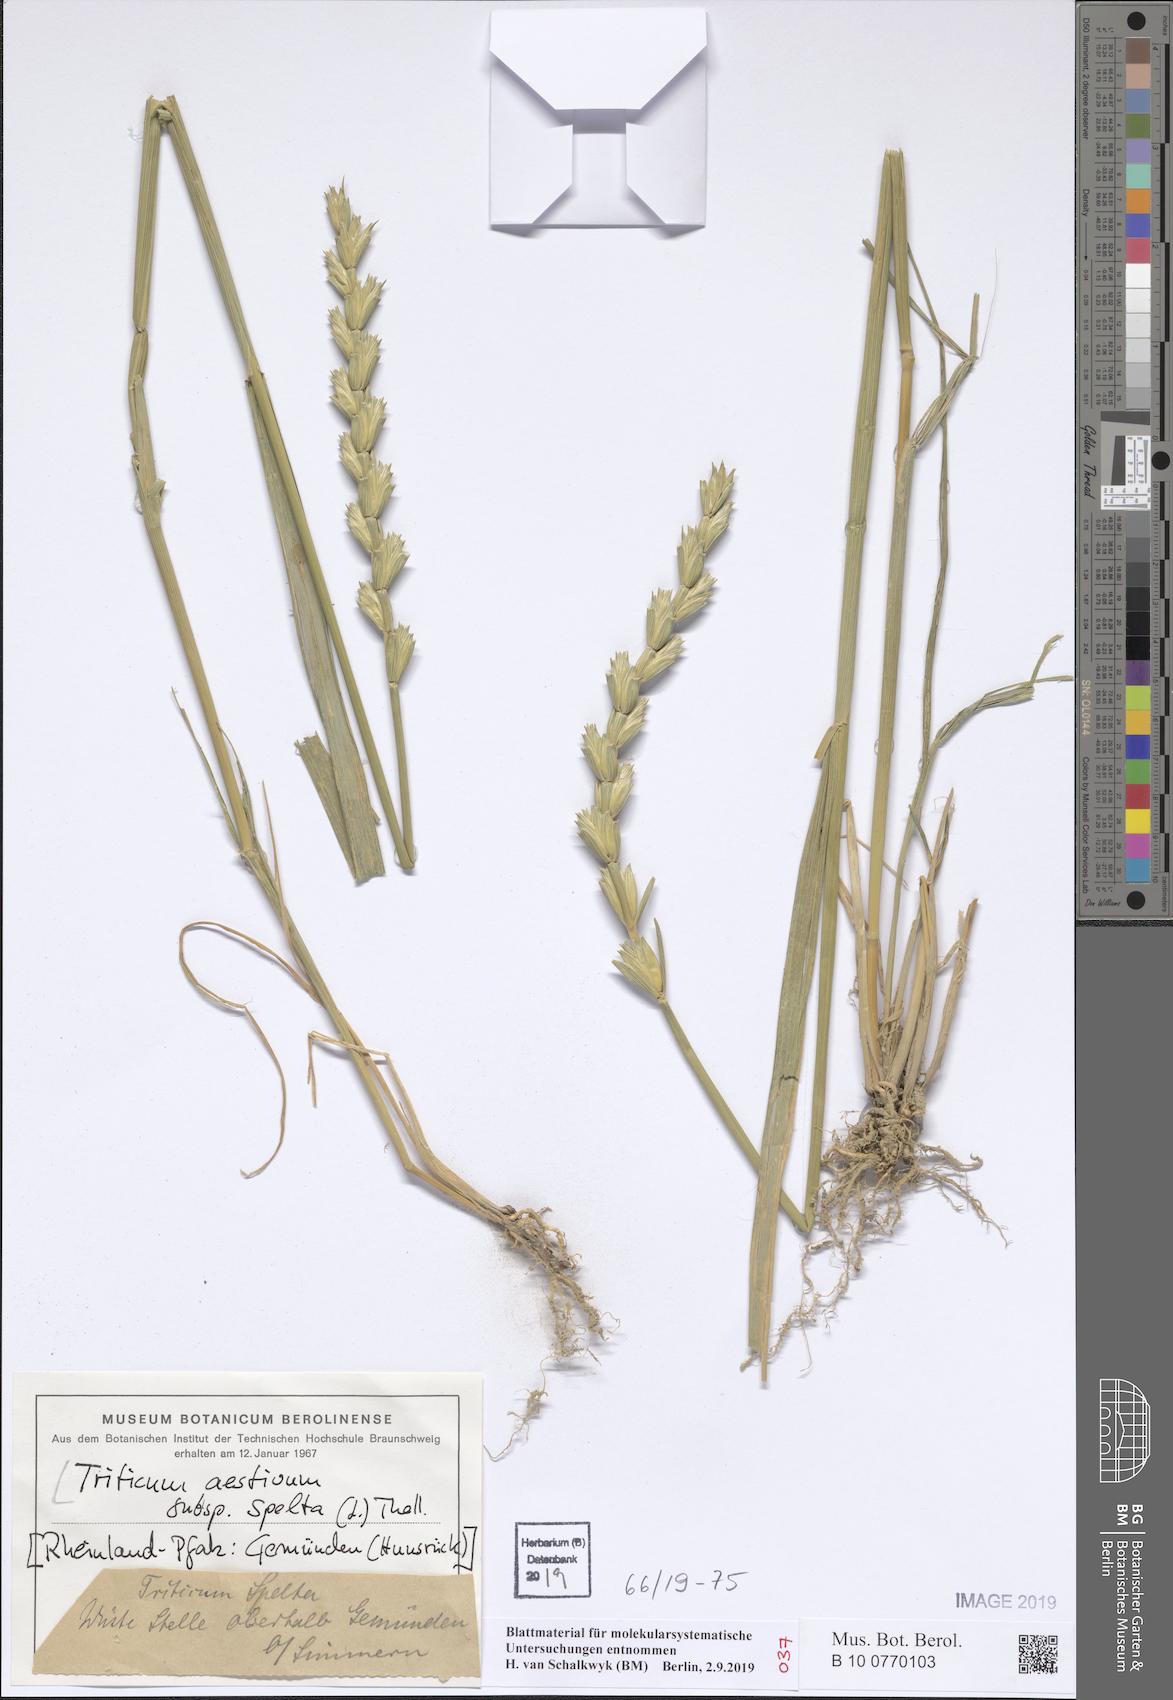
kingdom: Plantae
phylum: Tracheophyta
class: Liliopsida
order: Poales
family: Poaceae
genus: Triticum
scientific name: Triticum aestivum
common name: Common wheat
